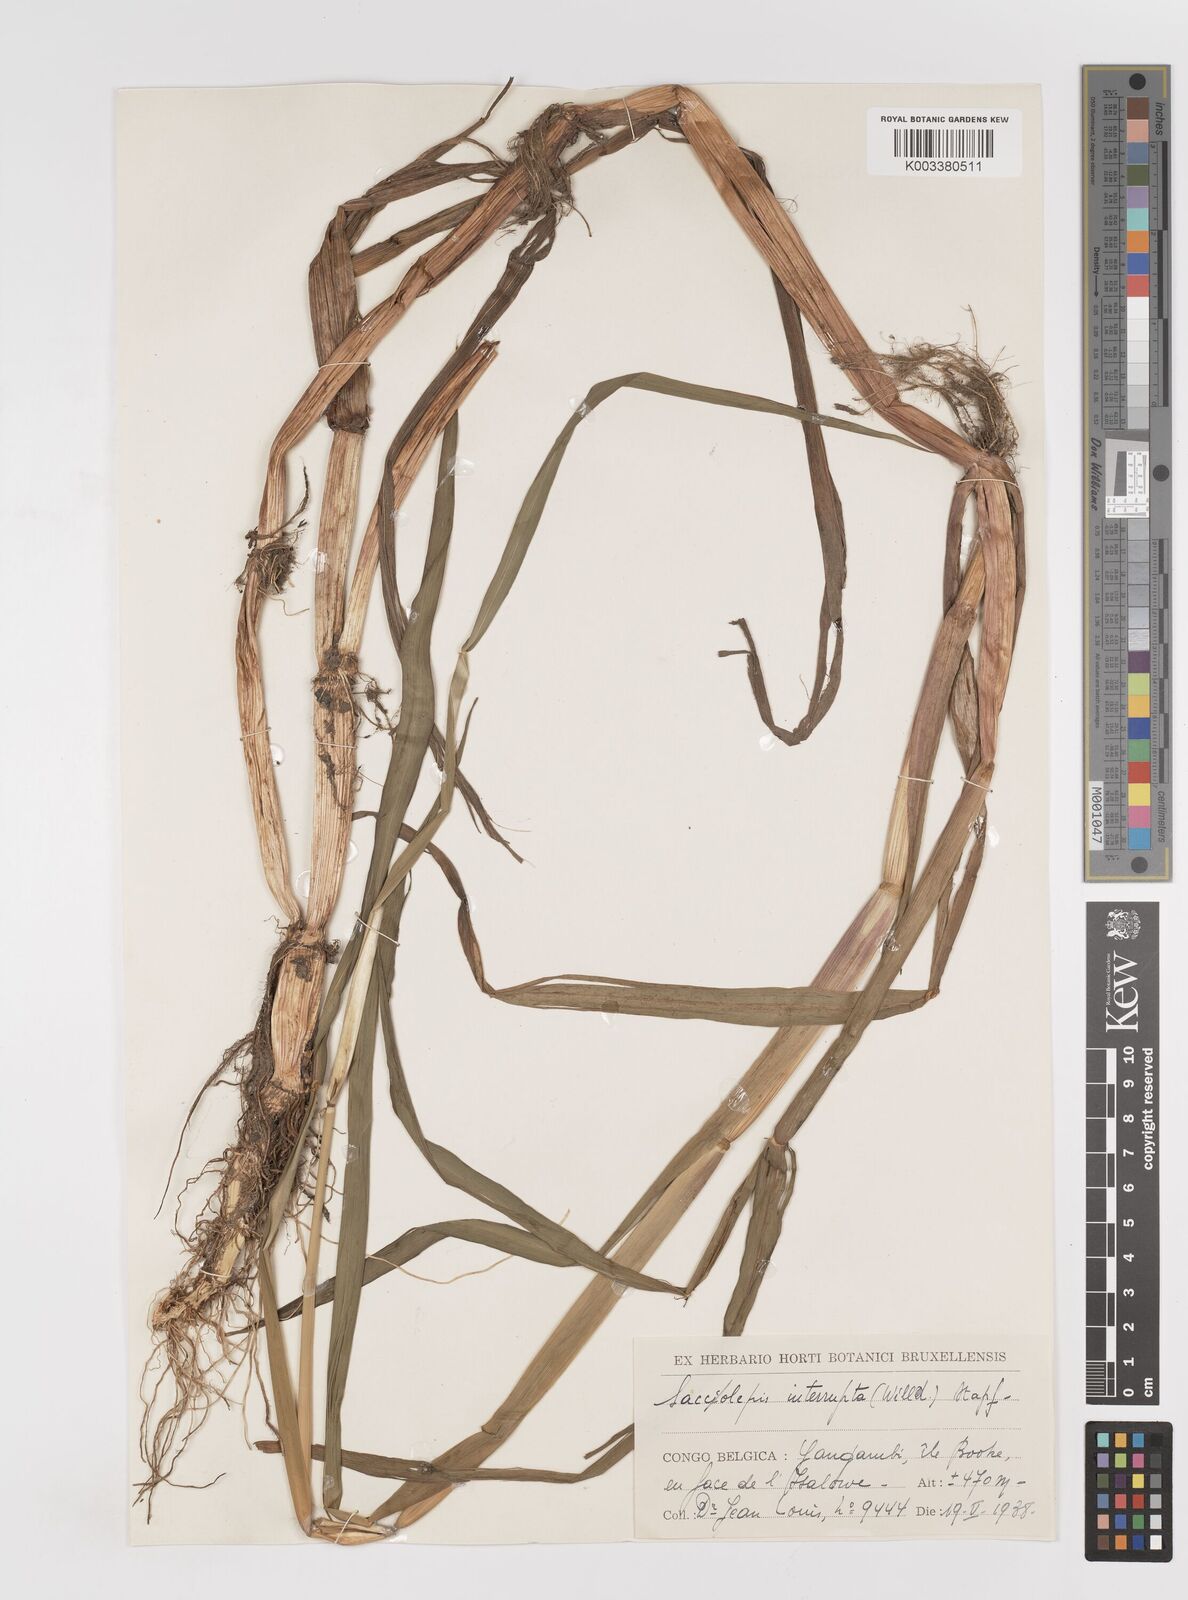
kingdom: Plantae
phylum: Tracheophyta
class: Liliopsida
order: Poales
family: Poaceae
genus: Sacciolepis
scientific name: Sacciolepis africana
